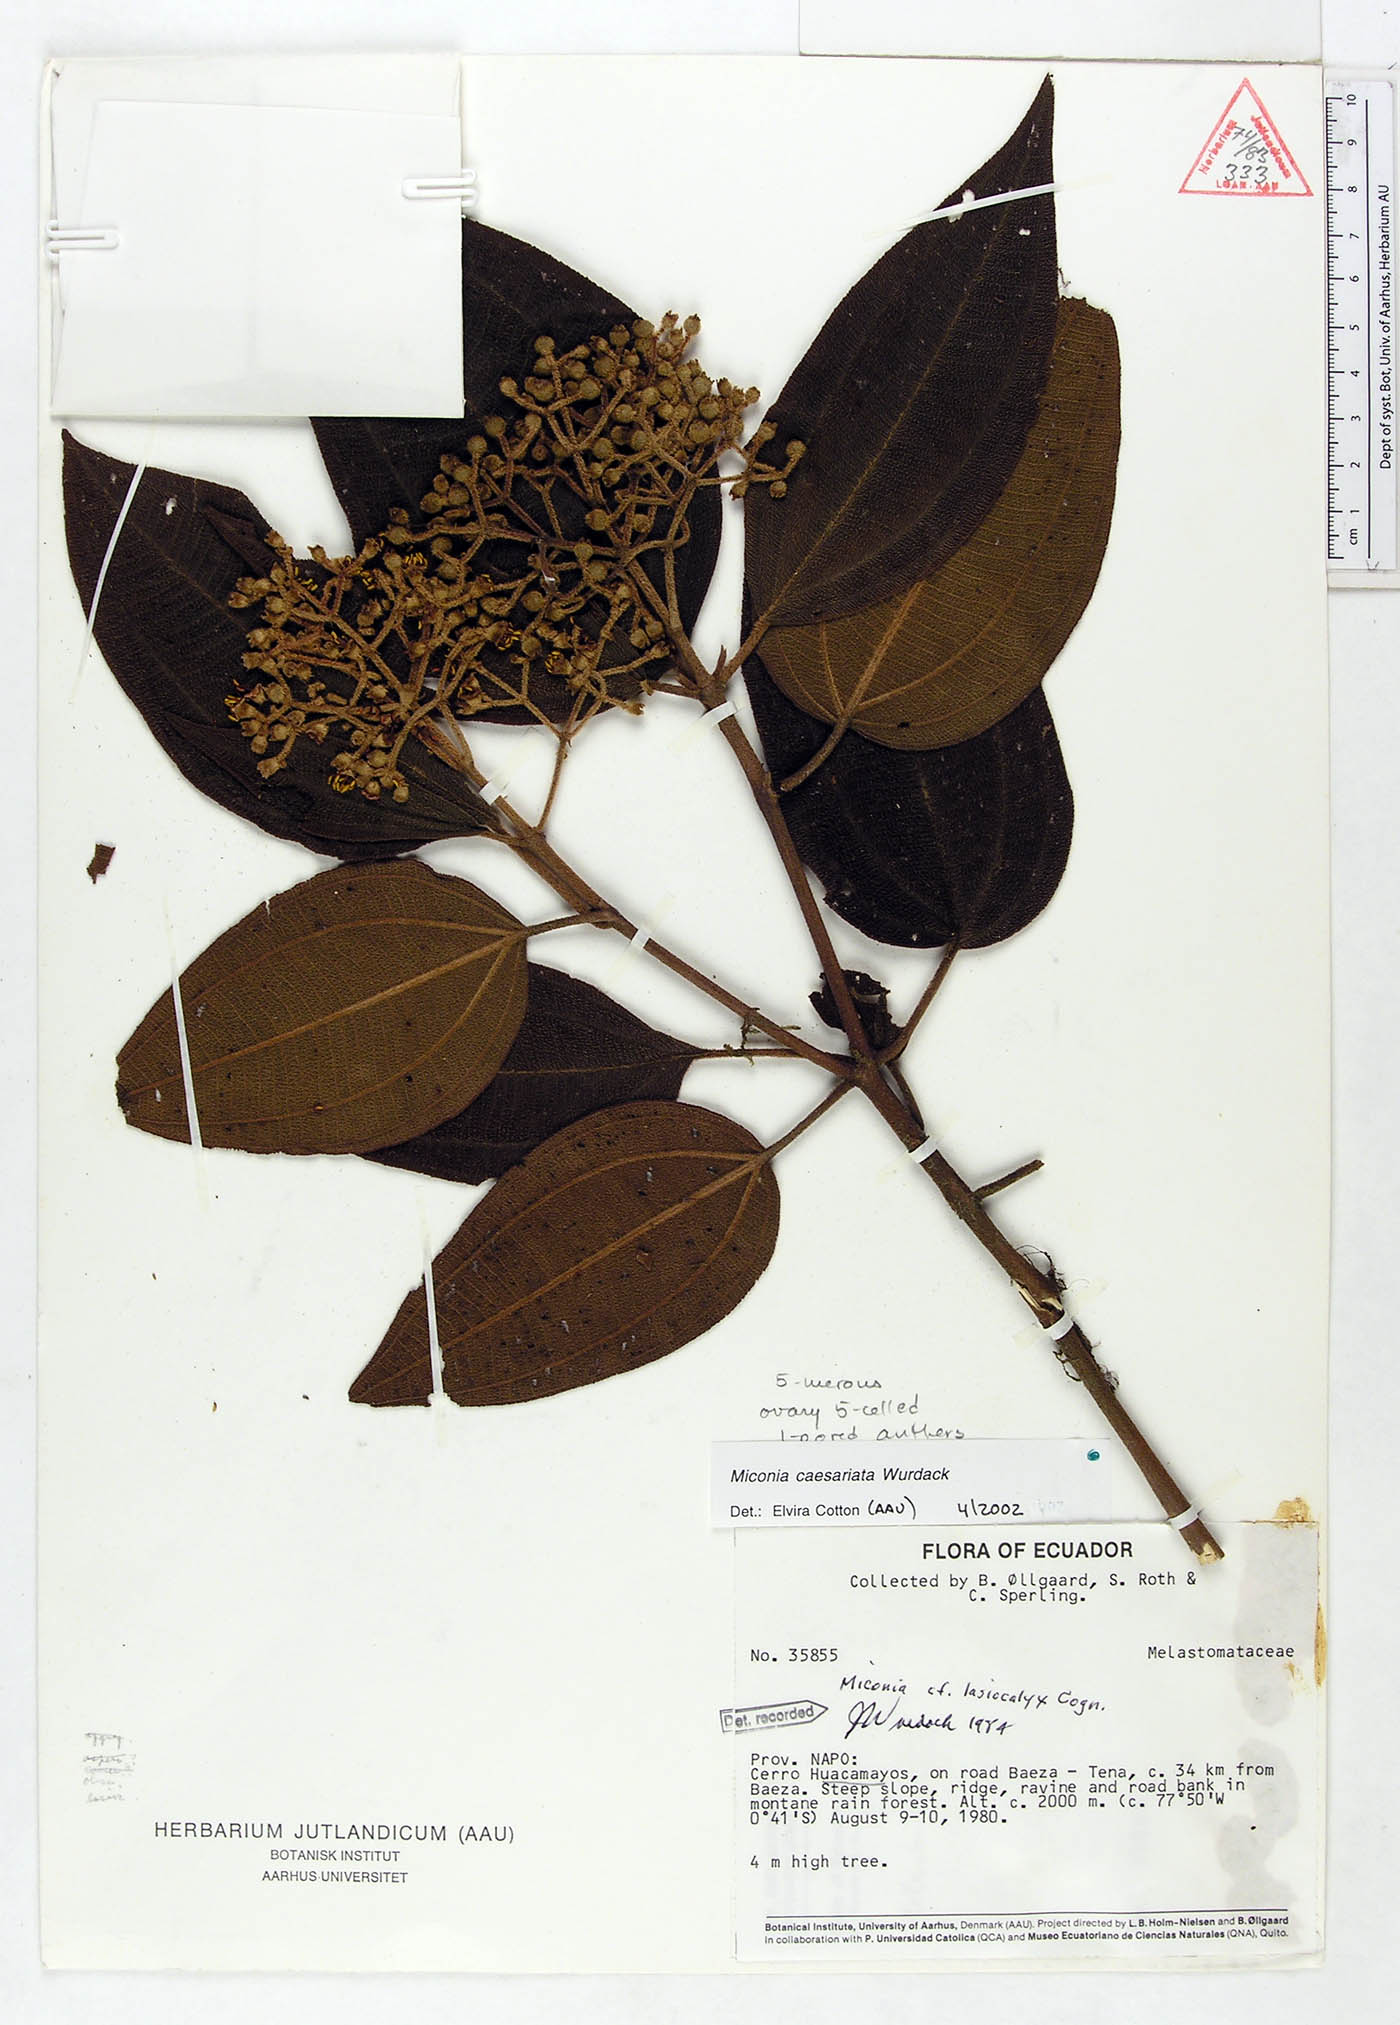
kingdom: Plantae
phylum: Tracheophyta
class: Magnoliopsida
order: Myrtales
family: Melastomataceae
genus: Miconia
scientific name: Miconia caesariata
